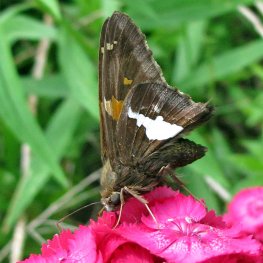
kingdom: Animalia
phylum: Arthropoda
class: Insecta
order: Lepidoptera
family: Hesperiidae
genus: Epargyreus
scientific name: Epargyreus clarus
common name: Silver-spotted Skipper
